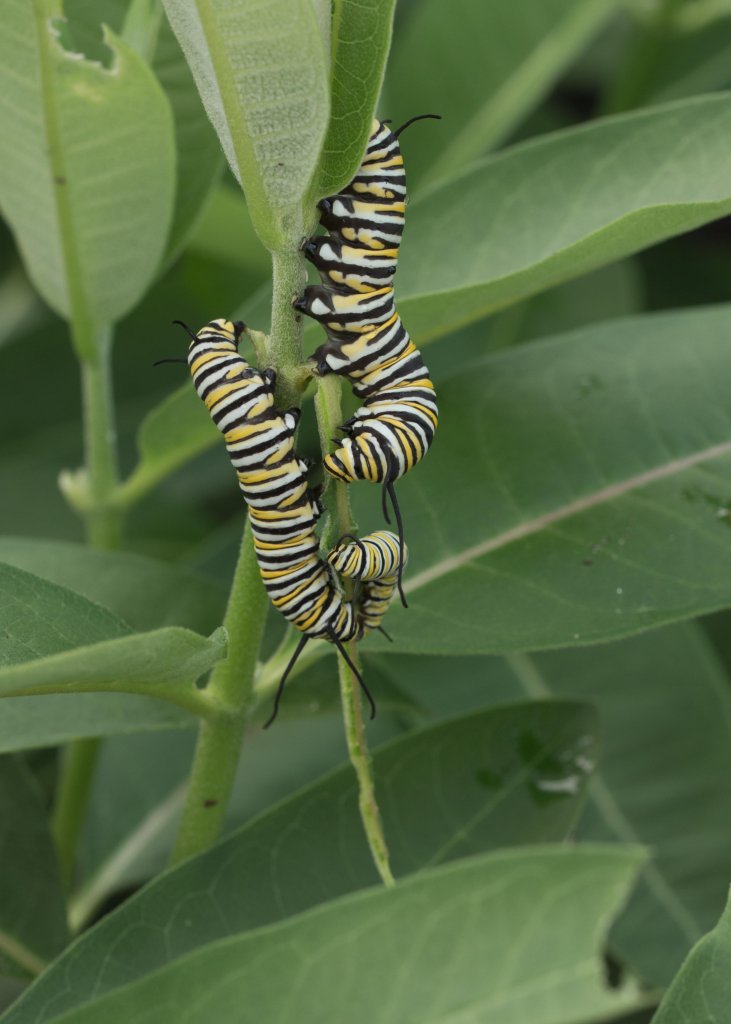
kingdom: Animalia
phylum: Arthropoda
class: Insecta
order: Lepidoptera
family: Nymphalidae
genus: Danaus
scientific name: Danaus plexippus
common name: Monarch
